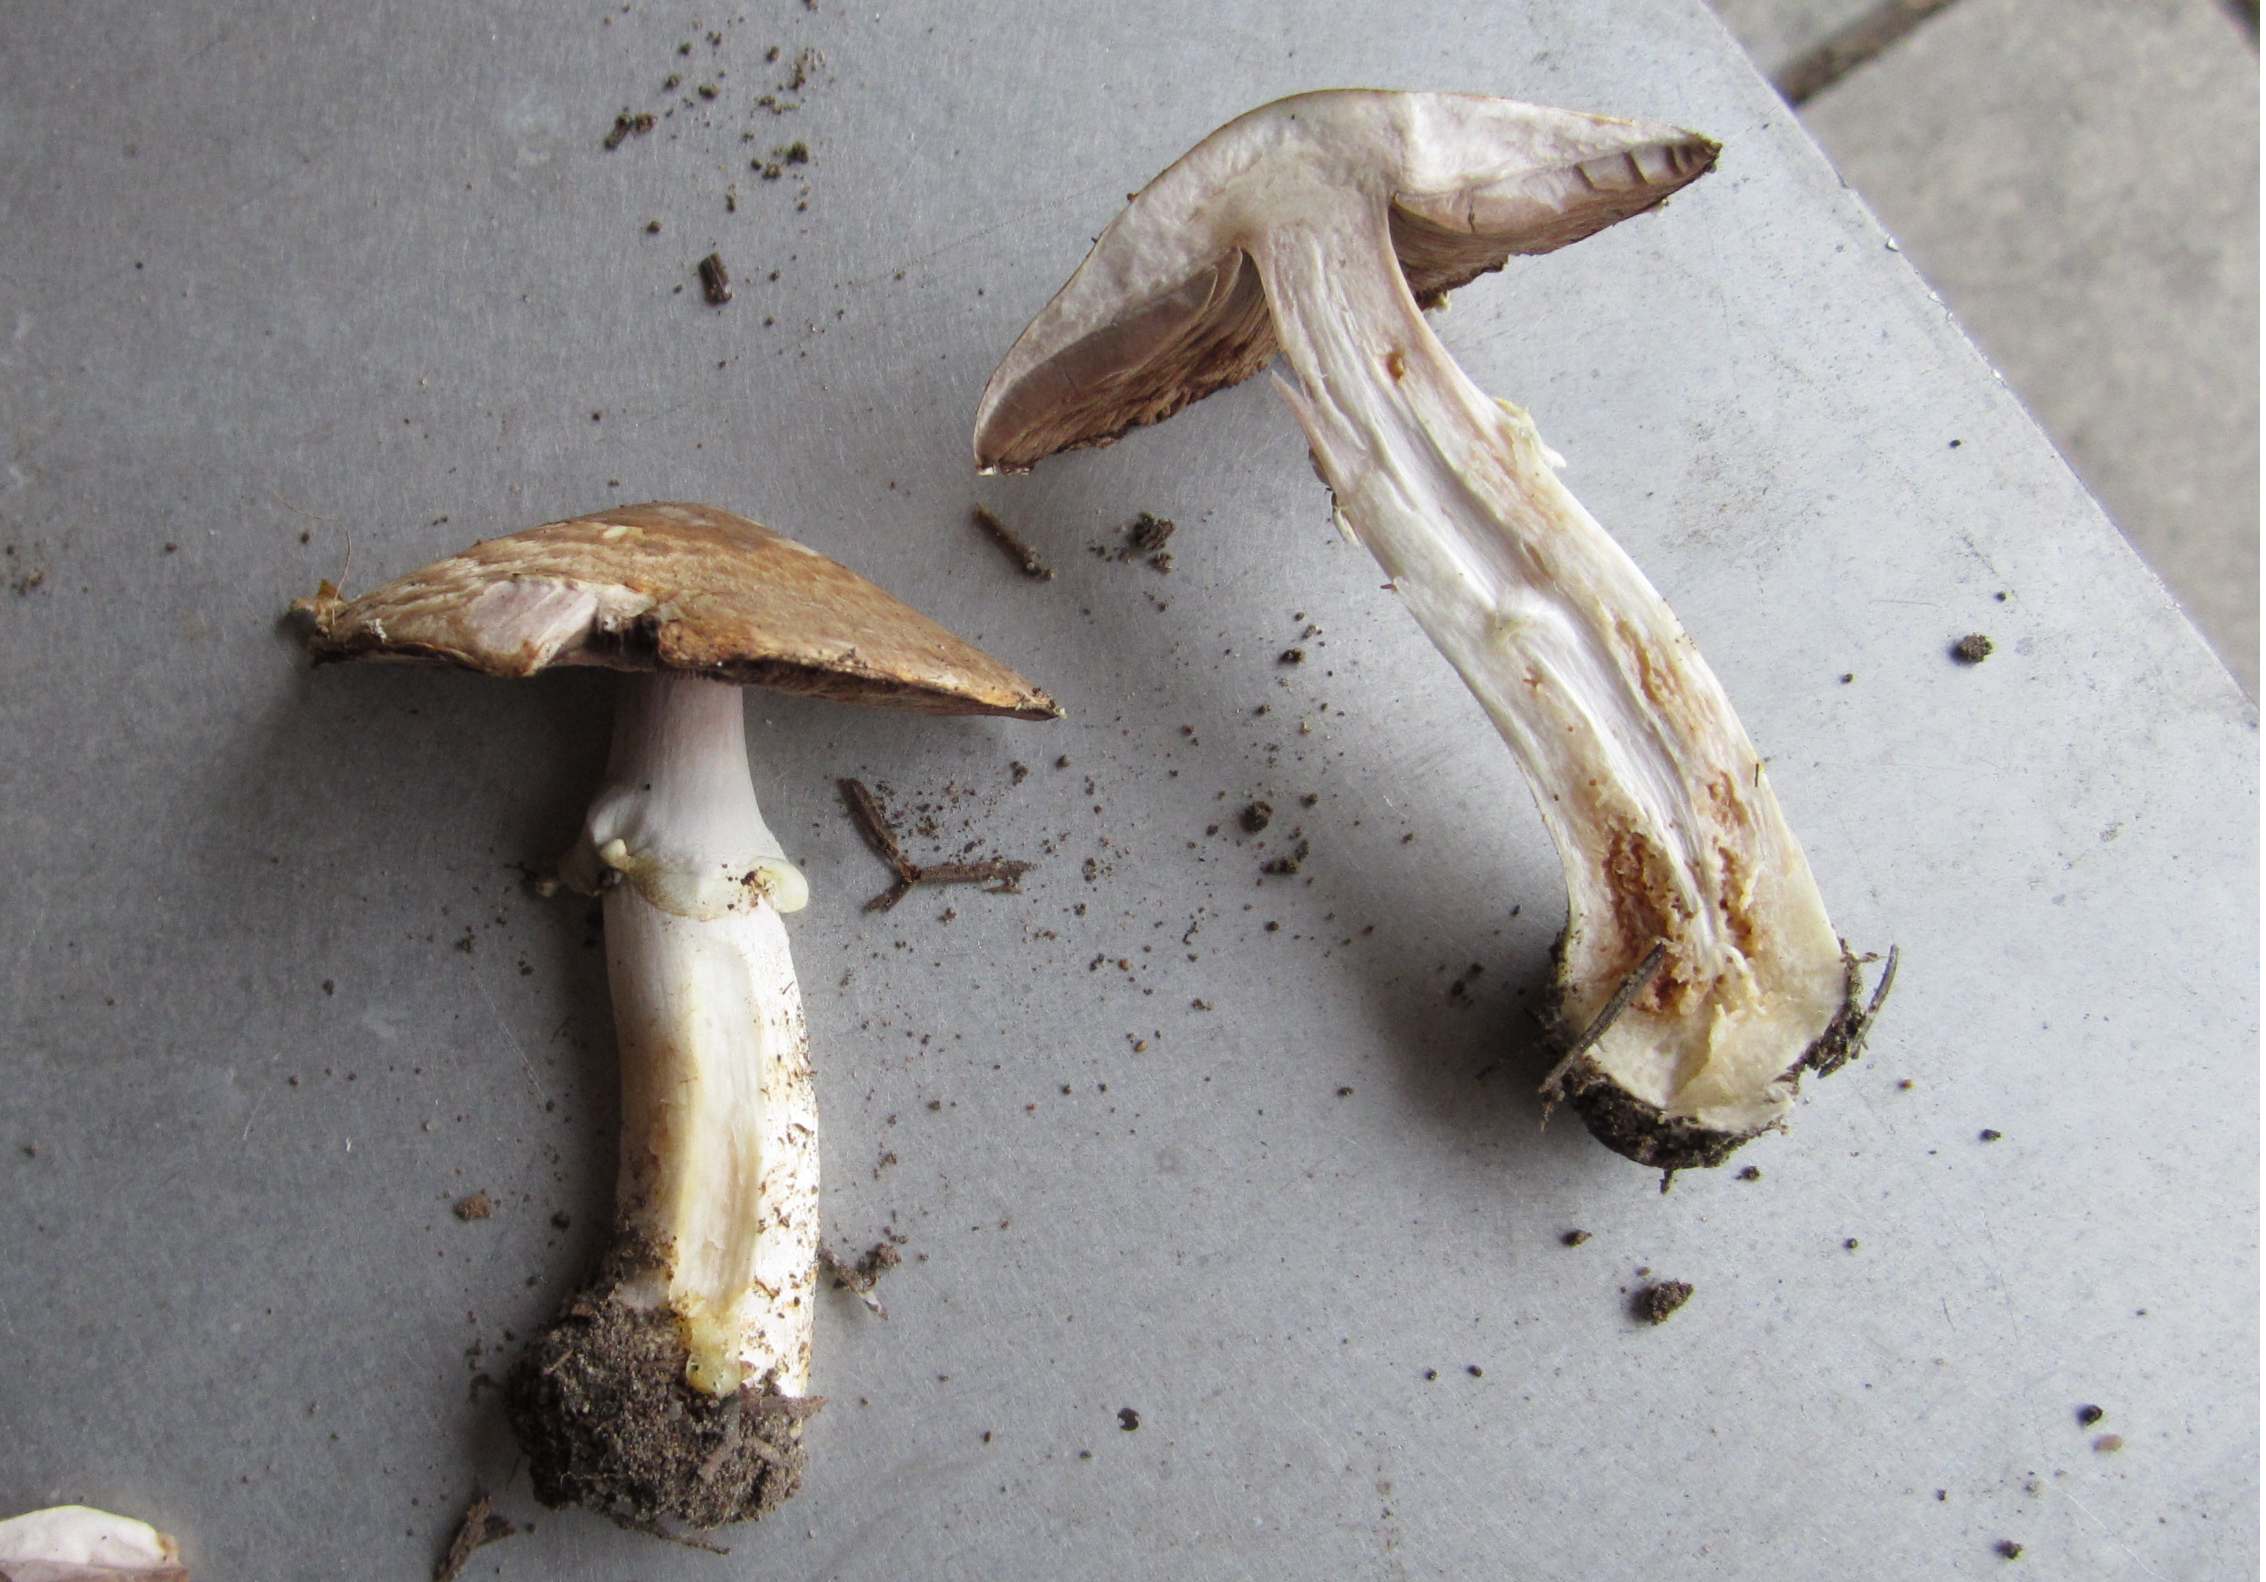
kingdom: Fungi
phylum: Basidiomycota
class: Agaricomycetes
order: Agaricales
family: Agaricaceae
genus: Agaricus
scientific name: Agaricus phaeolepidotus
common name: agerhøne-champignon
